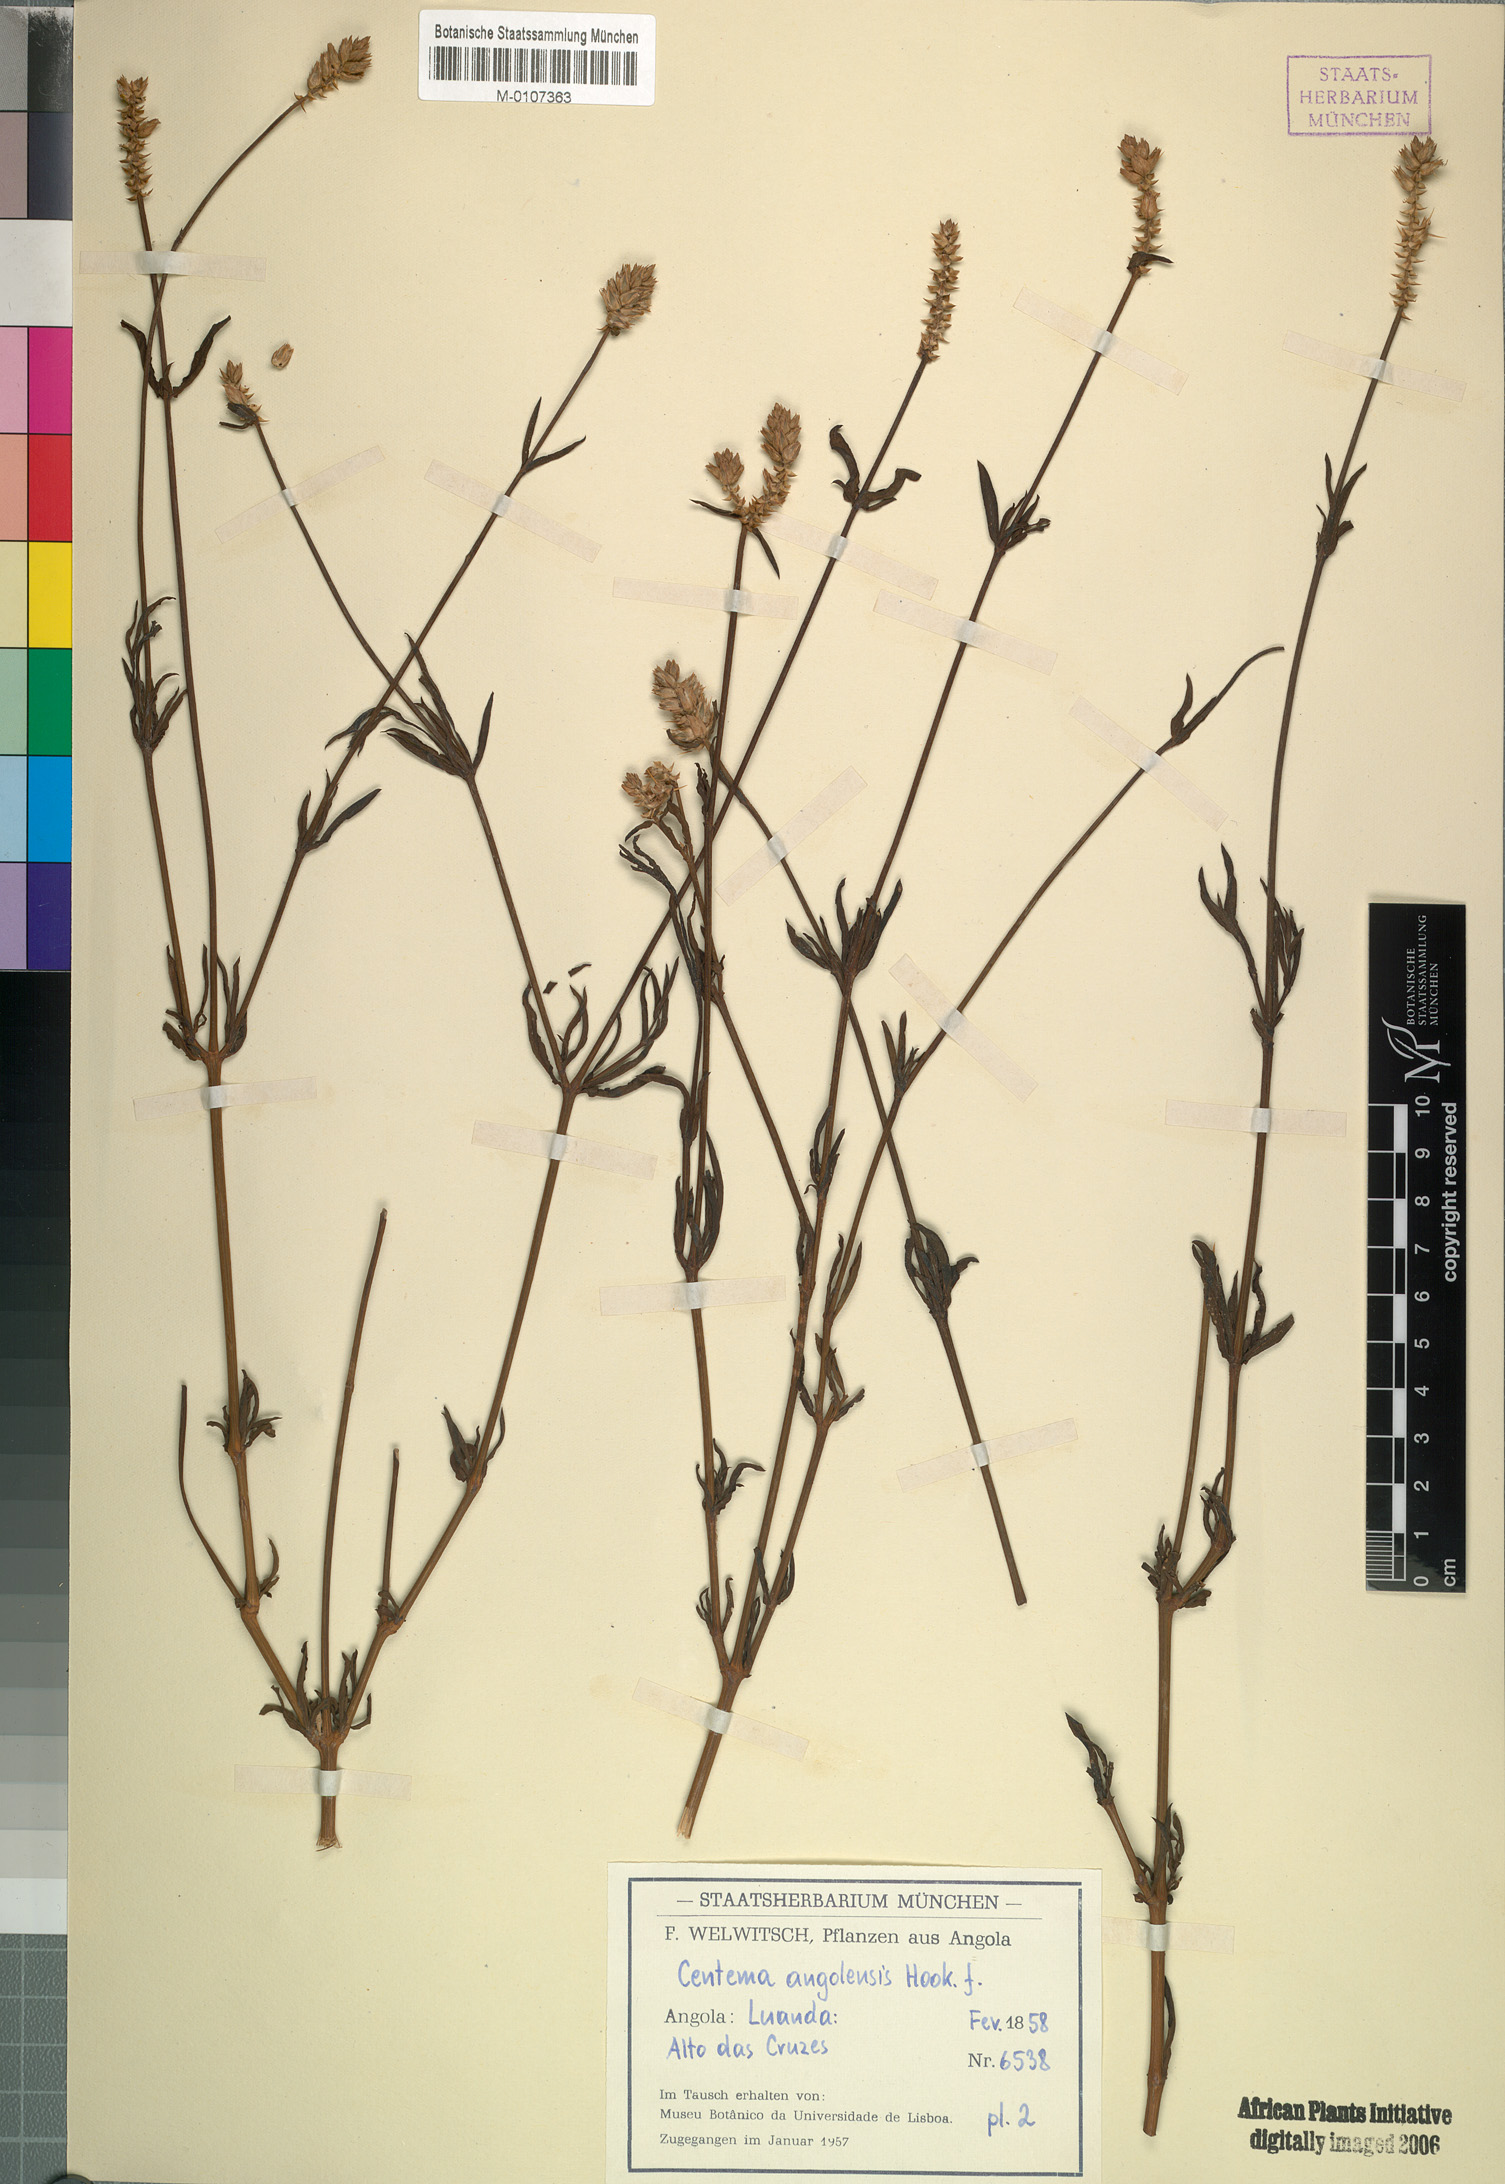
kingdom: Plantae
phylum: Tracheophyta
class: Magnoliopsida
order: Caryophyllales
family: Amaranthaceae
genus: Centema
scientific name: Centema angolensis
